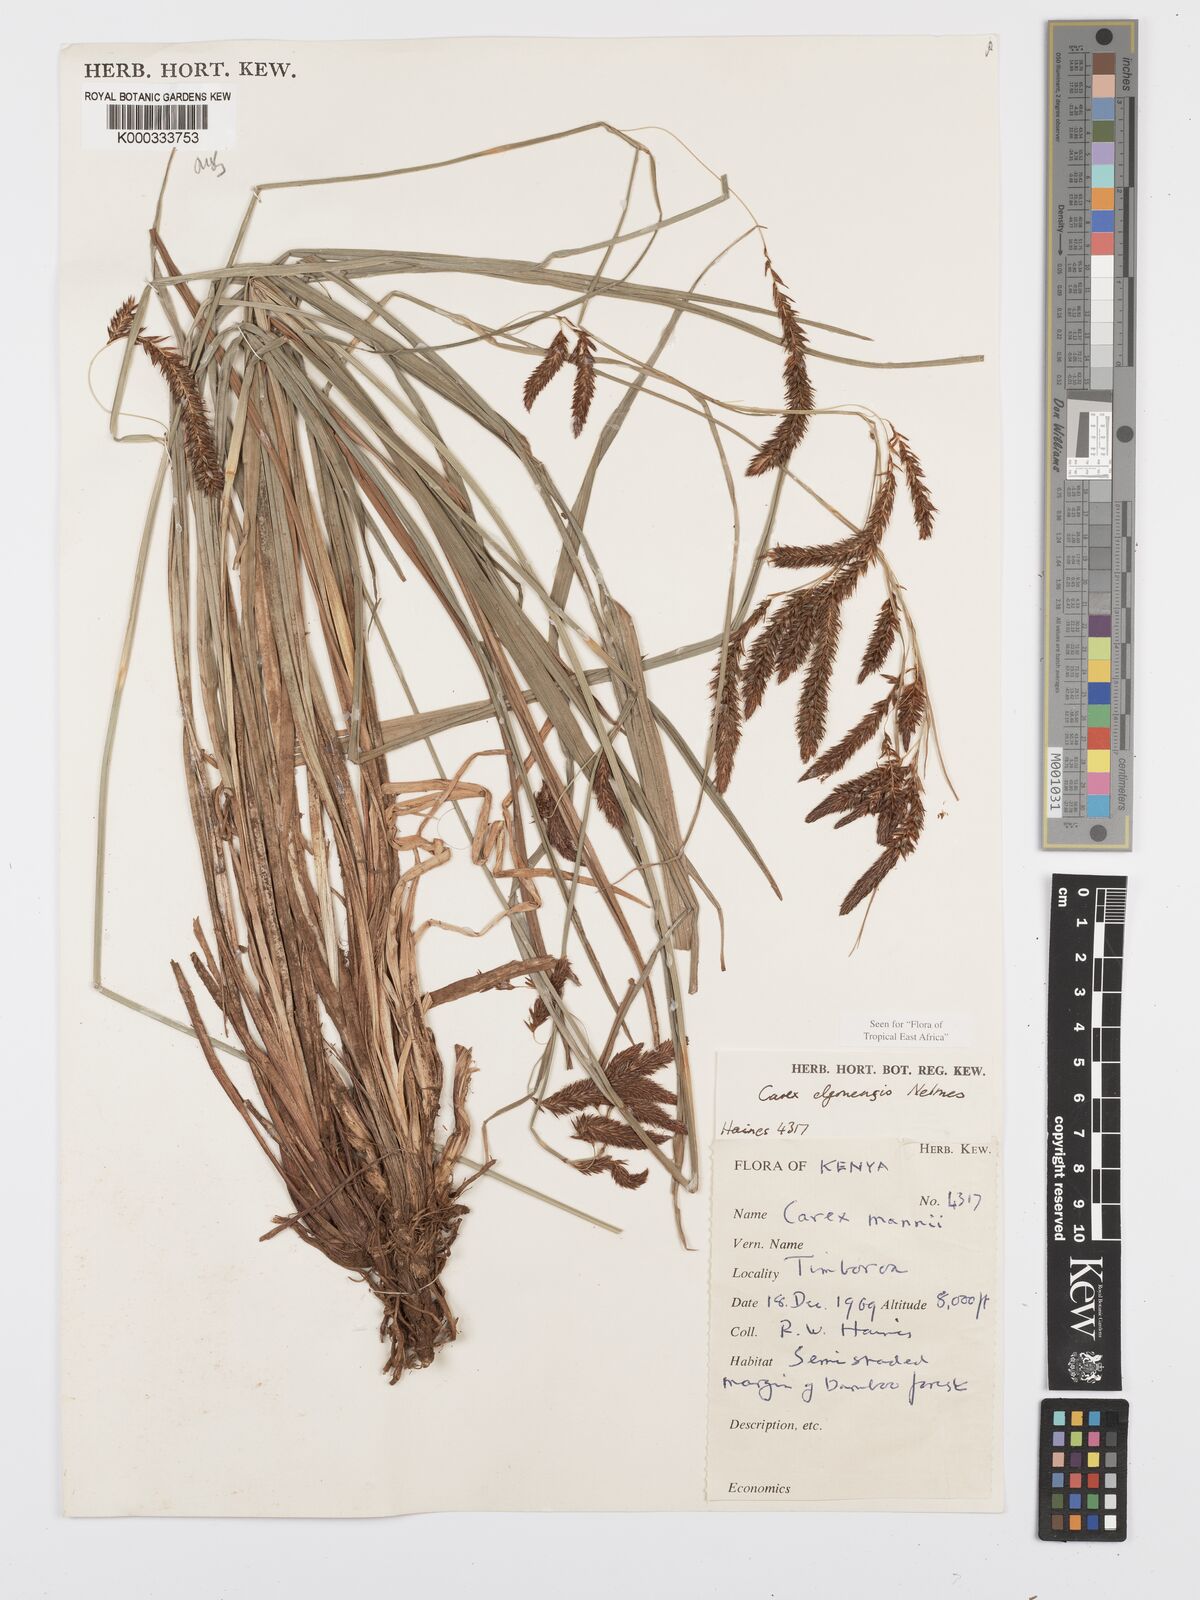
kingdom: Plantae
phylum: Tracheophyta
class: Liliopsida
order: Poales
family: Cyperaceae
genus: Carex
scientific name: Carex elgonensis
